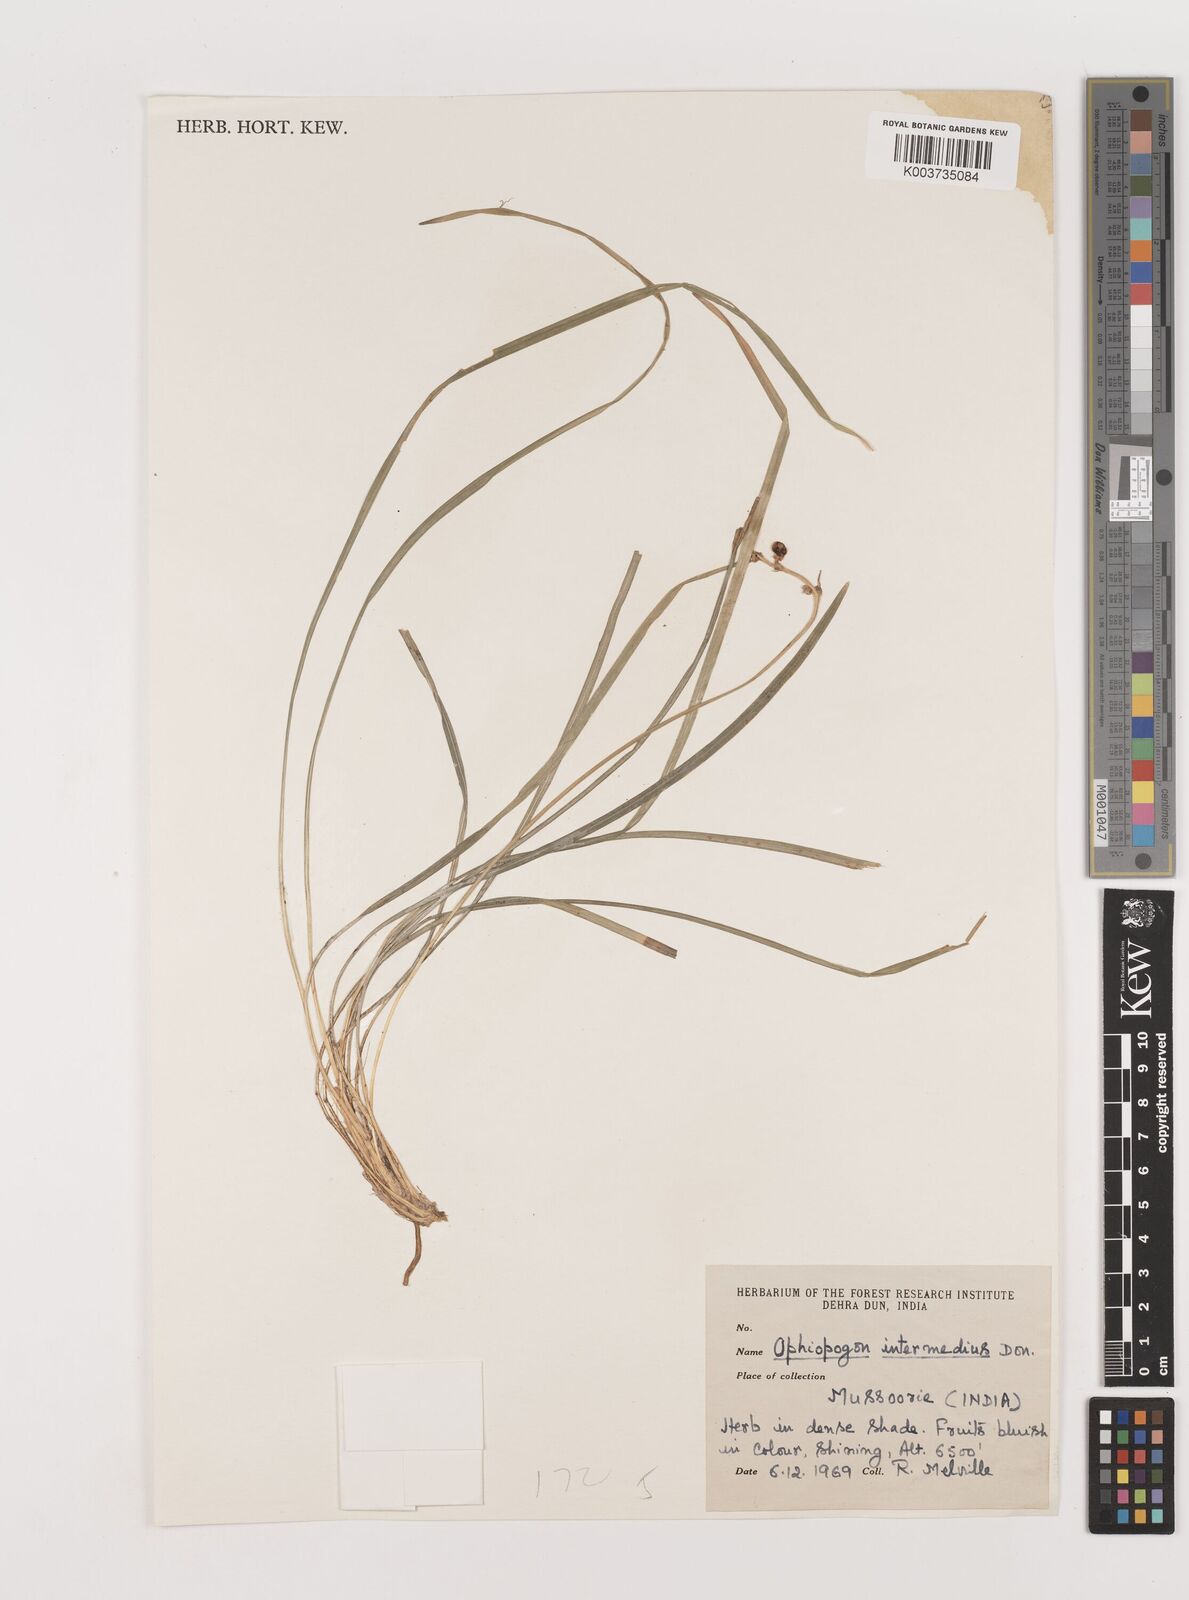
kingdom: Plantae
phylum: Tracheophyta
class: Liliopsida
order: Asparagales
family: Asparagaceae
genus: Ophiopogon
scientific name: Ophiopogon
